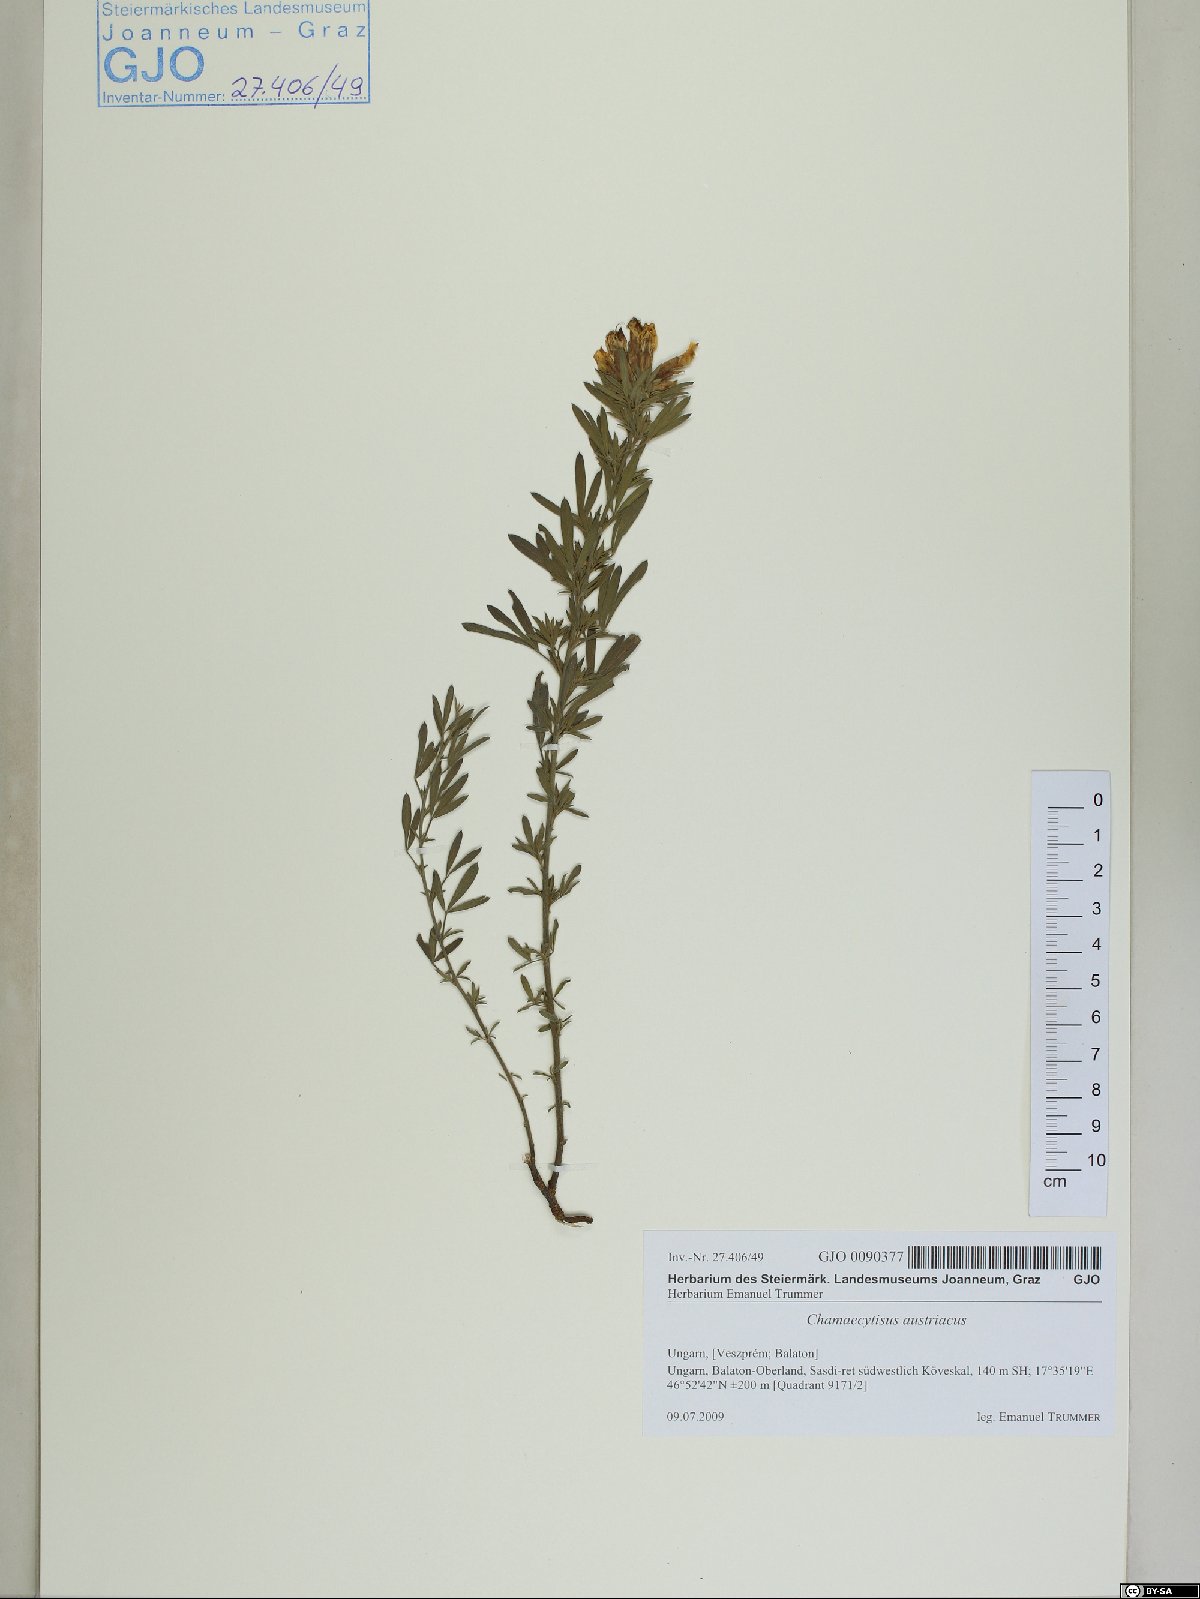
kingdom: Plantae
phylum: Tracheophyta
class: Magnoliopsida
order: Fabales
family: Fabaceae
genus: Chamaecytisus
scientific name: Chamaecytisus austriacus
